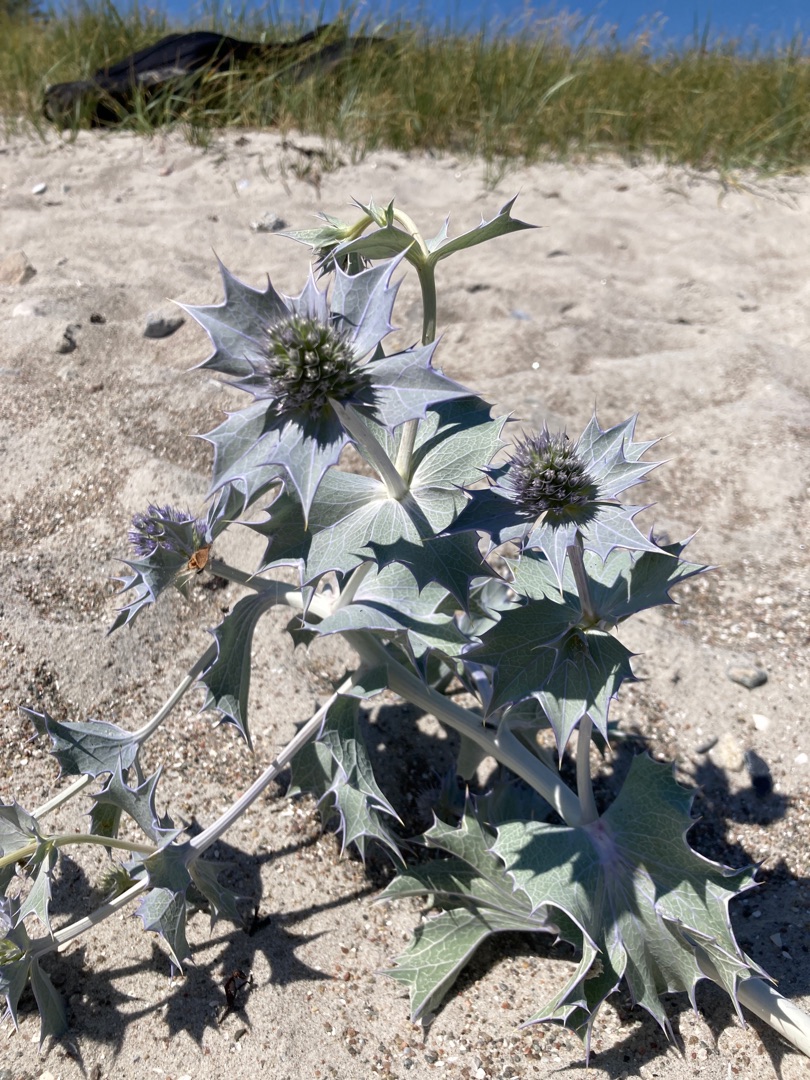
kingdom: Plantae
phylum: Tracheophyta
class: Magnoliopsida
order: Apiales
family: Apiaceae
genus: Eryngium
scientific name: Eryngium maritimum
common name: Strand-mandstro
